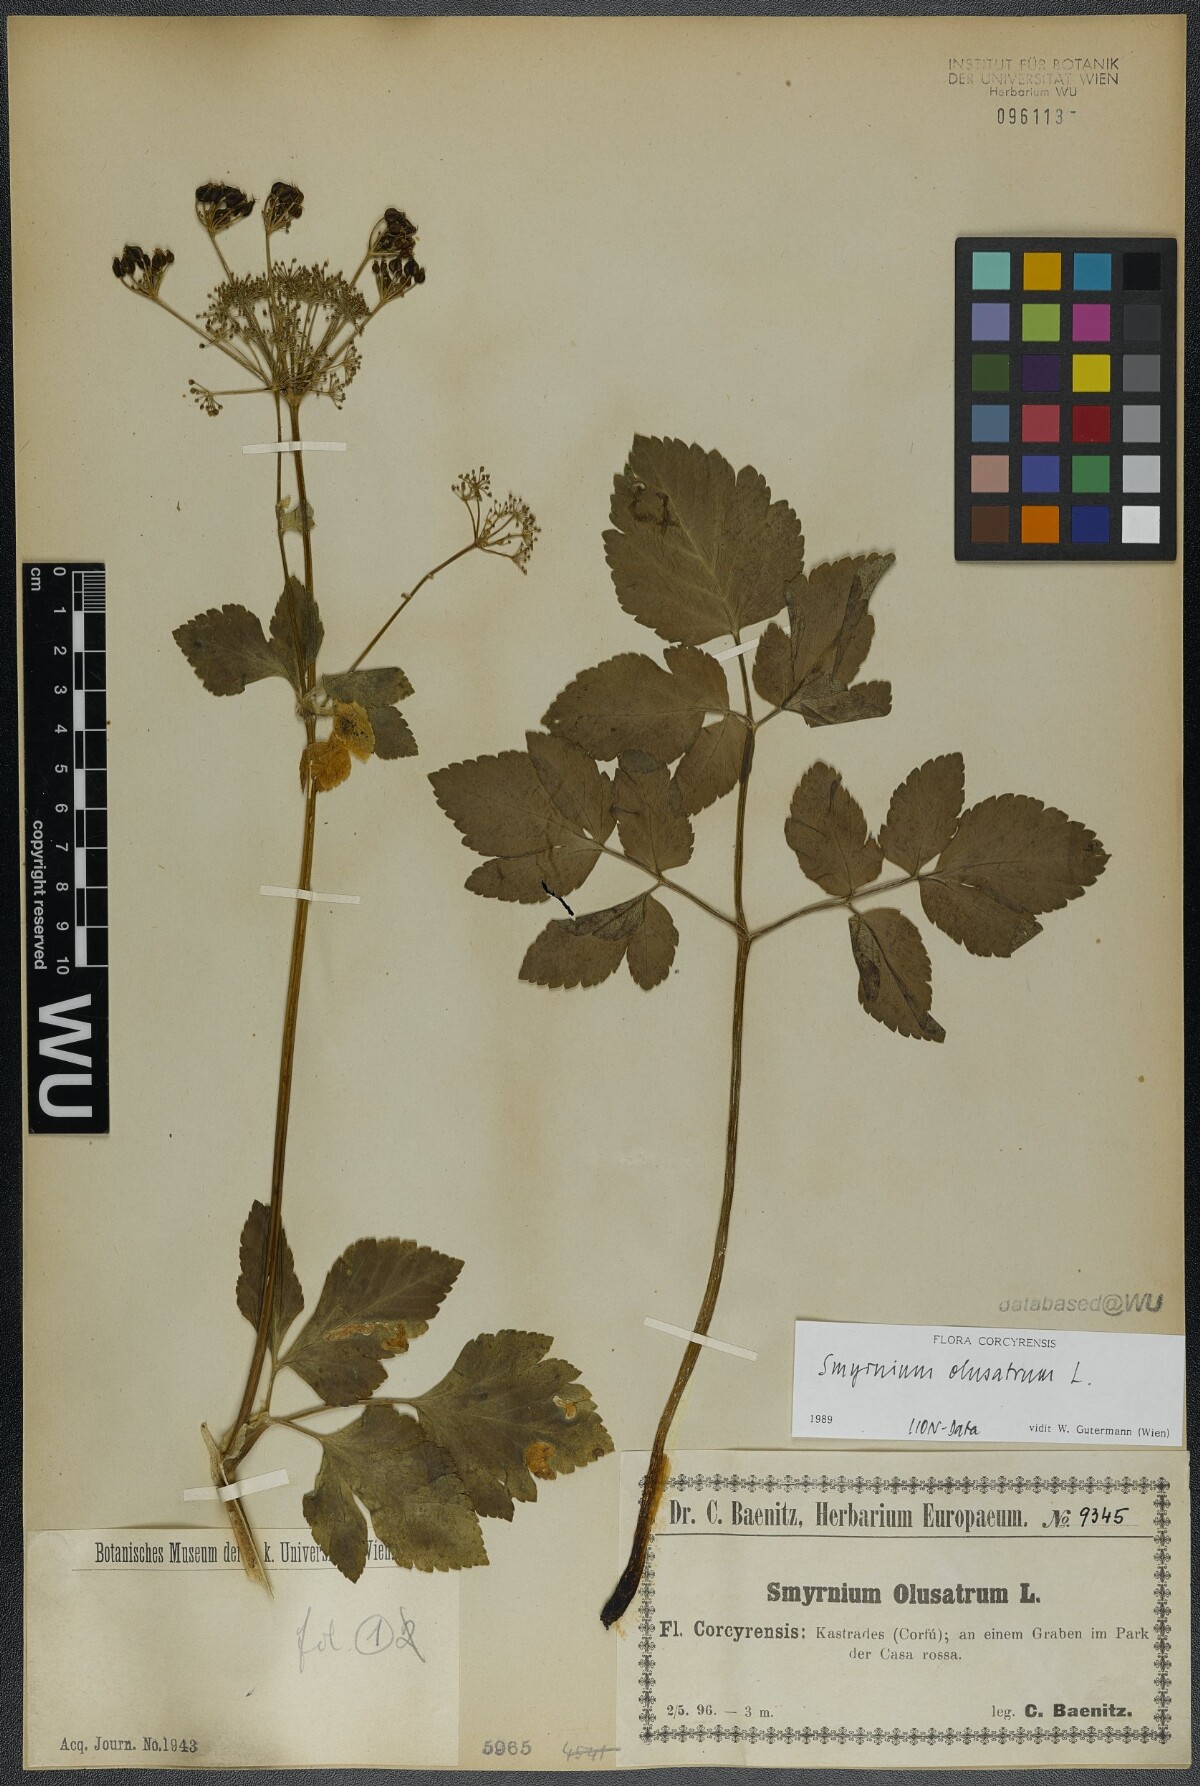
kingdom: Plantae
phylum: Tracheophyta
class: Magnoliopsida
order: Apiales
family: Apiaceae
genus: Smyrnium
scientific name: Smyrnium olusatrum
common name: Alexanders
